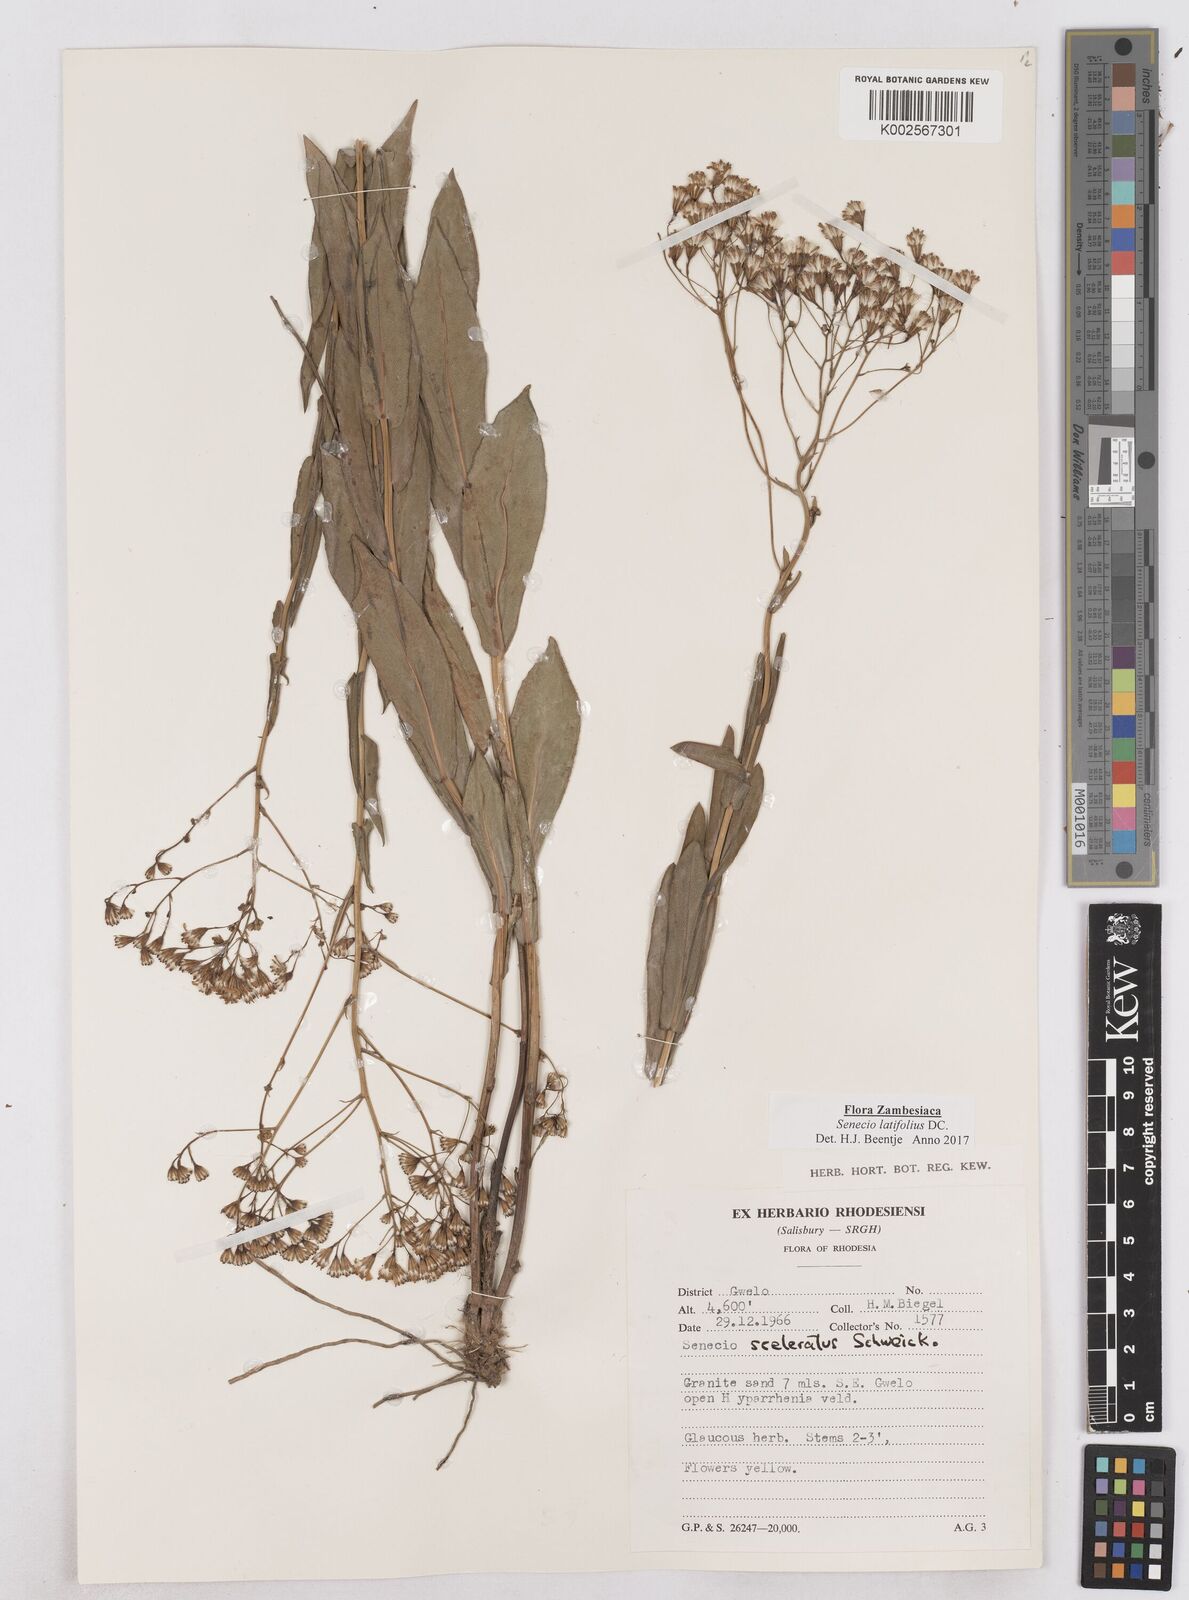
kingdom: Plantae
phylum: Tracheophyta
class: Magnoliopsida
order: Asterales
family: Asteraceae
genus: Senecio
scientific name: Senecio latifolius
